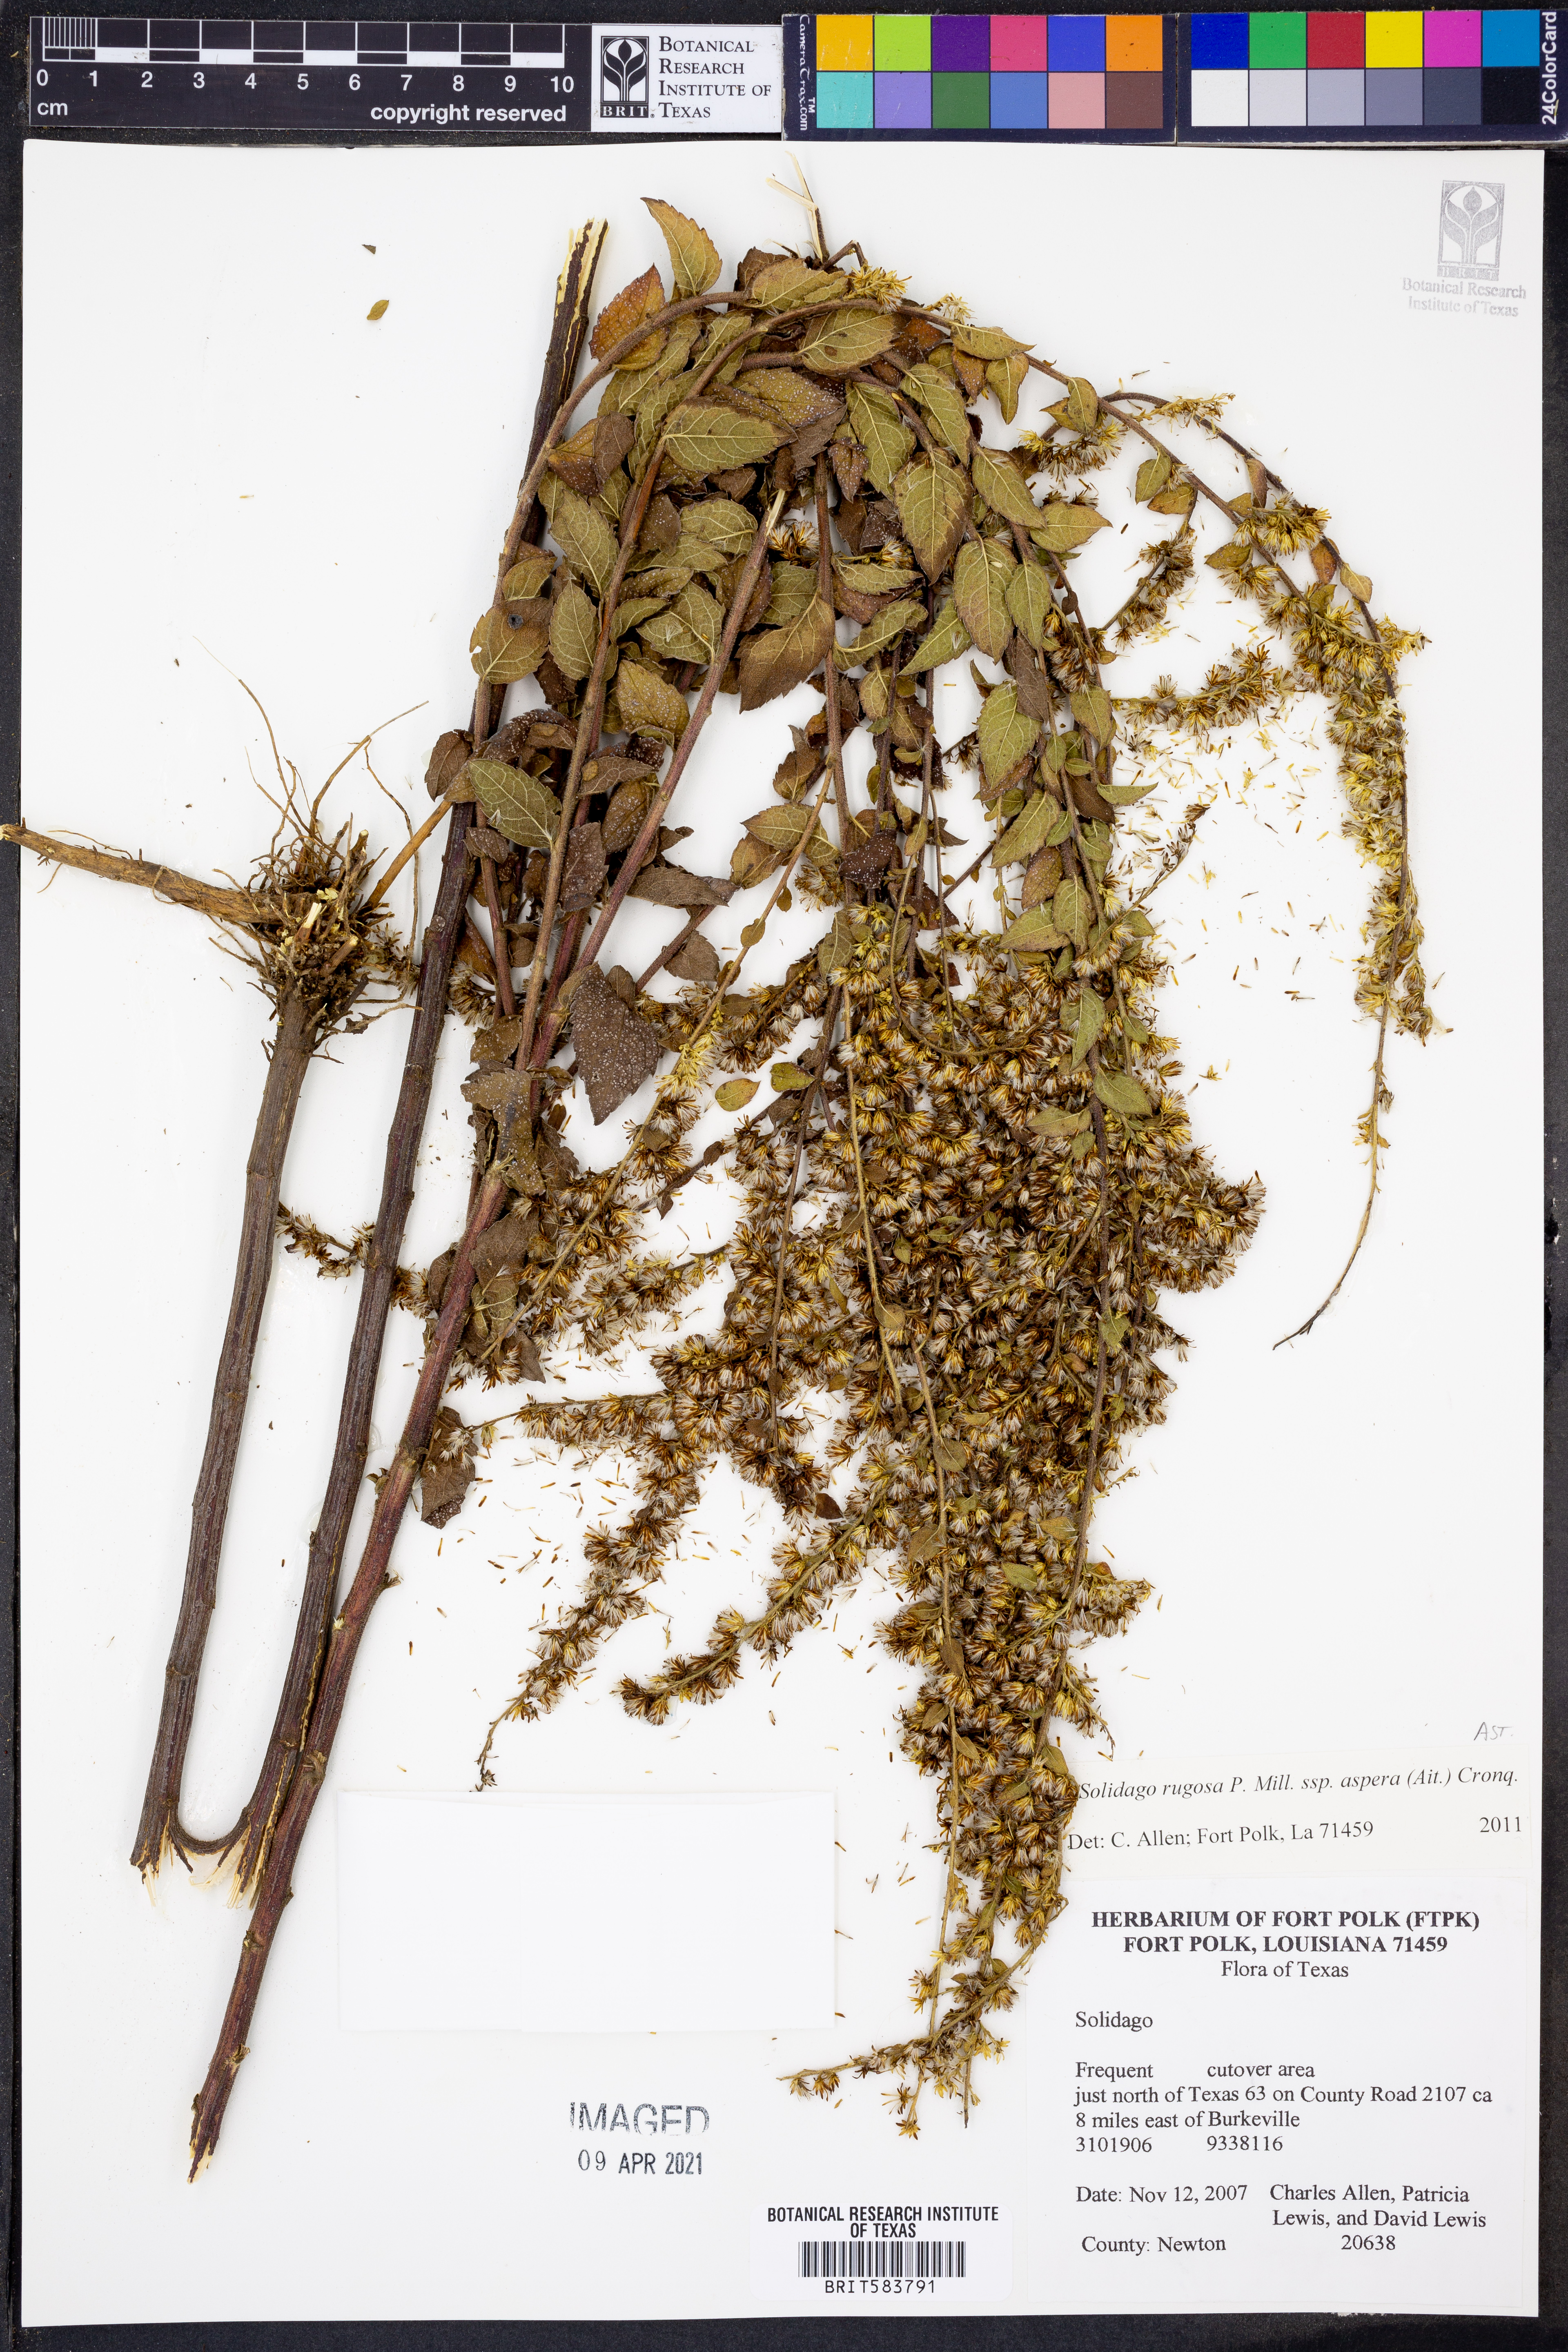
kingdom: Plantae
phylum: Tracheophyta
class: Magnoliopsida
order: Asterales
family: Asteraceae
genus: Solidago
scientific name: Solidago rugosa
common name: Rough-stemmed goldenrod
